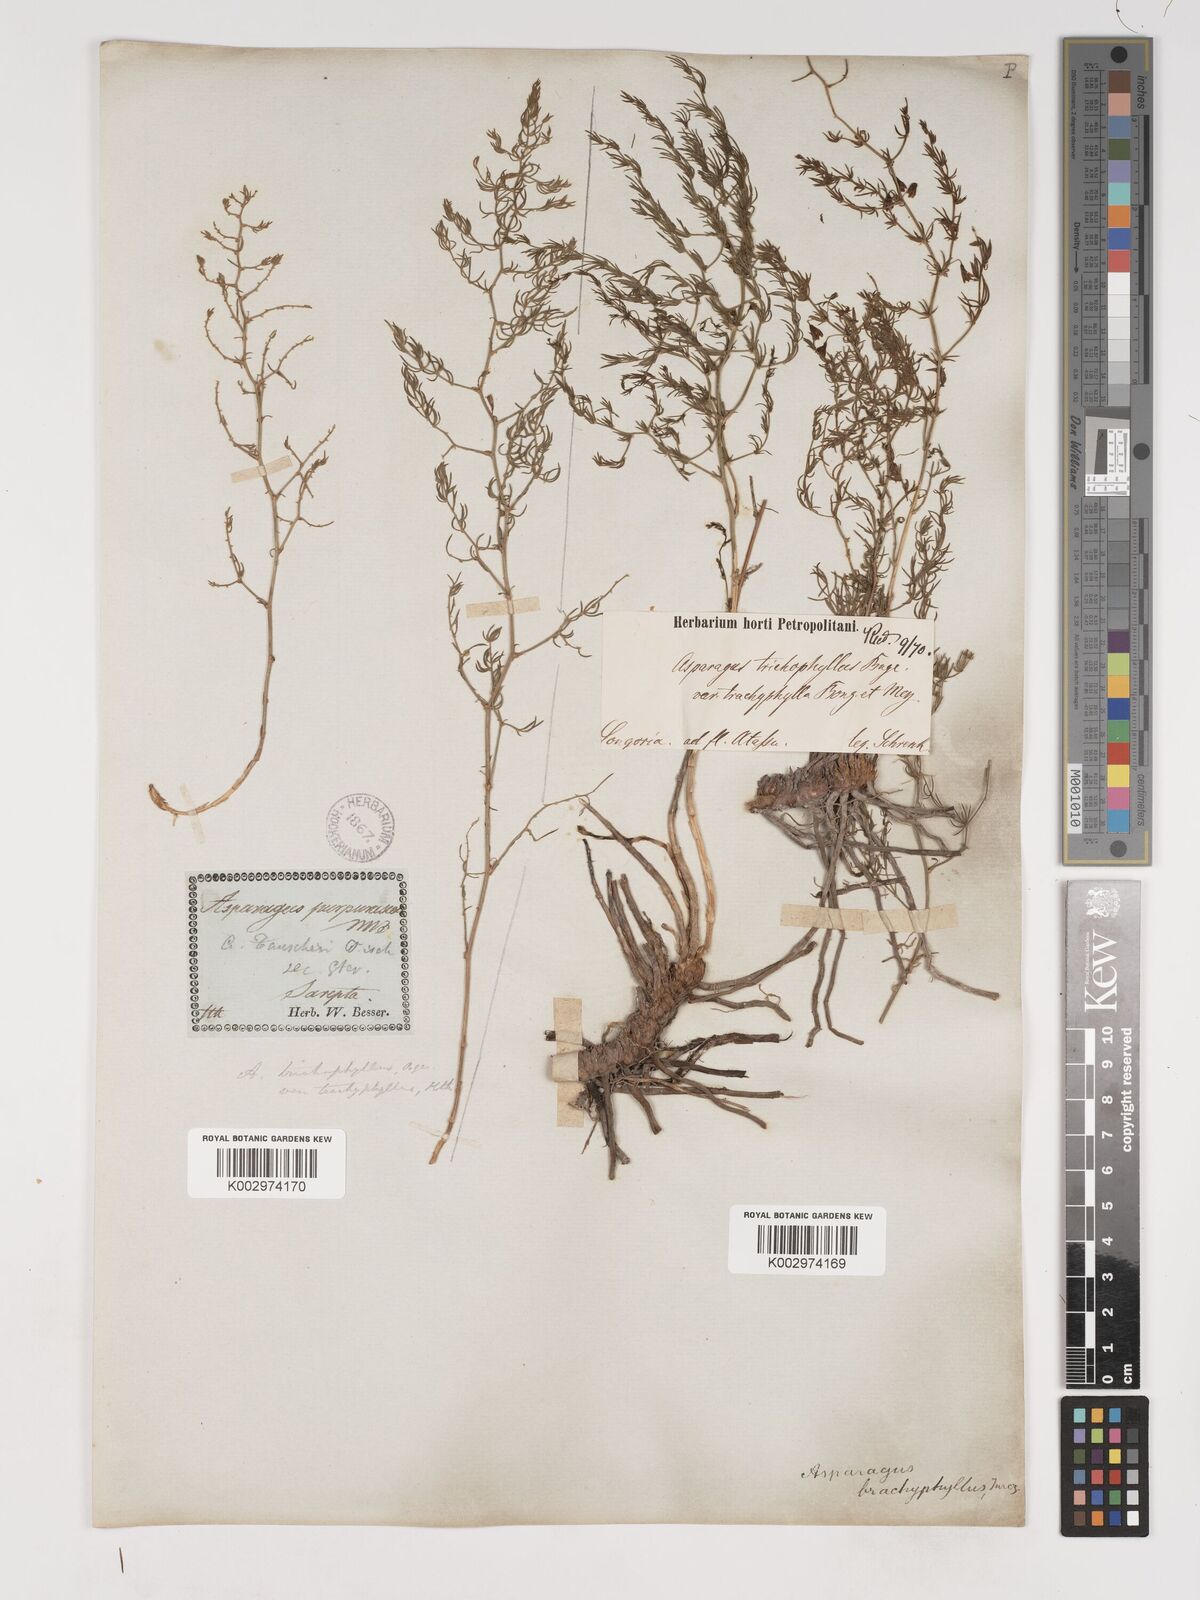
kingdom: Plantae
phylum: Tracheophyta
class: Liliopsida
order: Asparagales
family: Asparagaceae
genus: Asparagus
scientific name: Asparagus brachyphyllus
